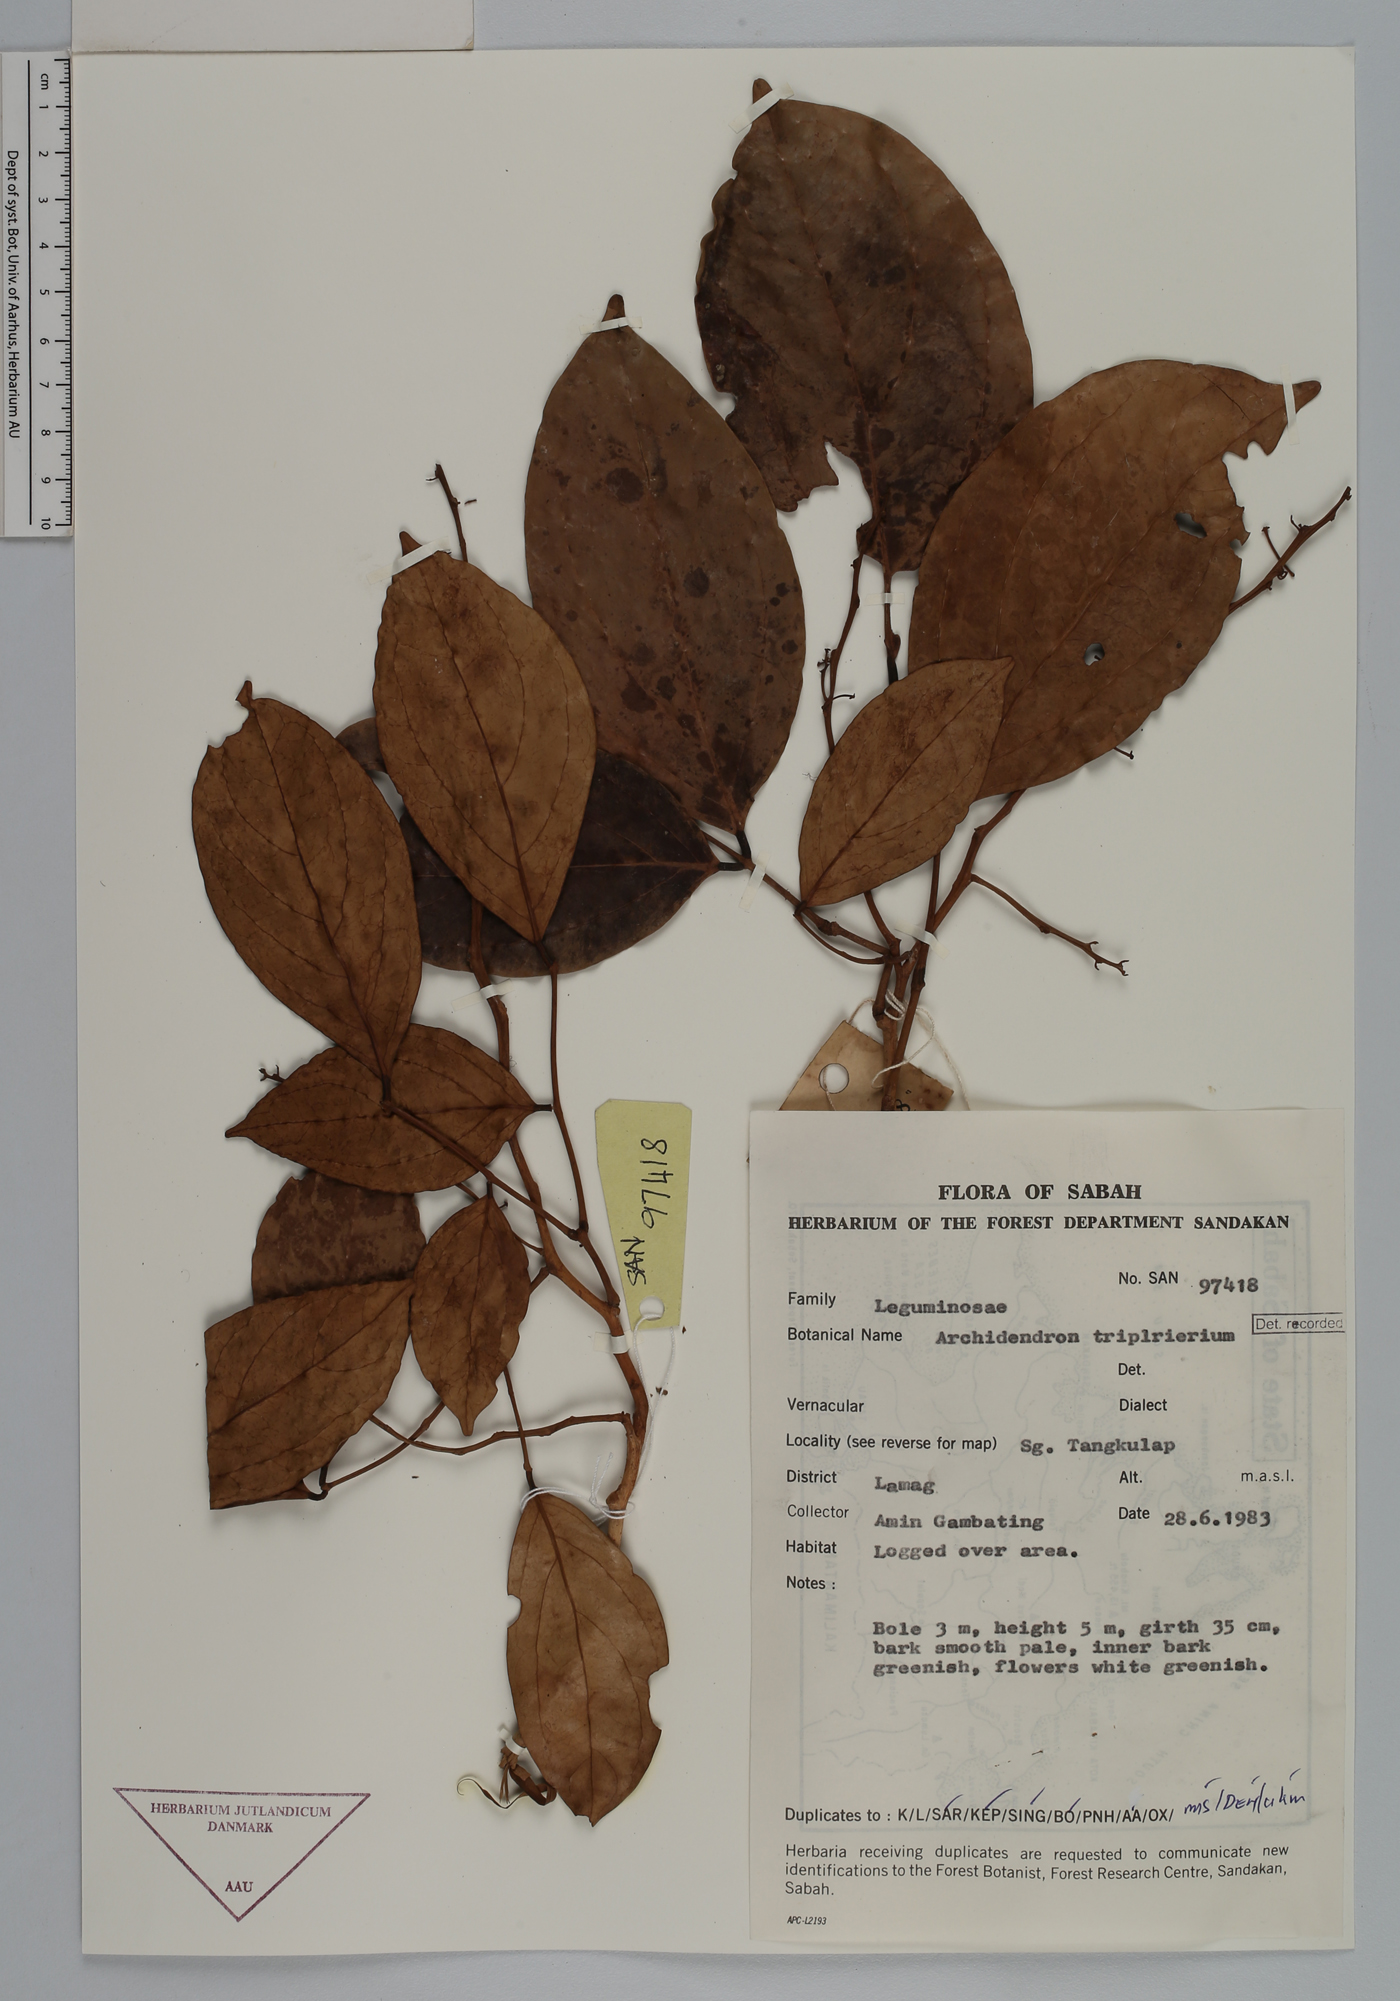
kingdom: Plantae
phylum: Tracheophyta
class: Magnoliopsida
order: Fabales
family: Fabaceae
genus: Archidendron
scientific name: Archidendron triplinervium
